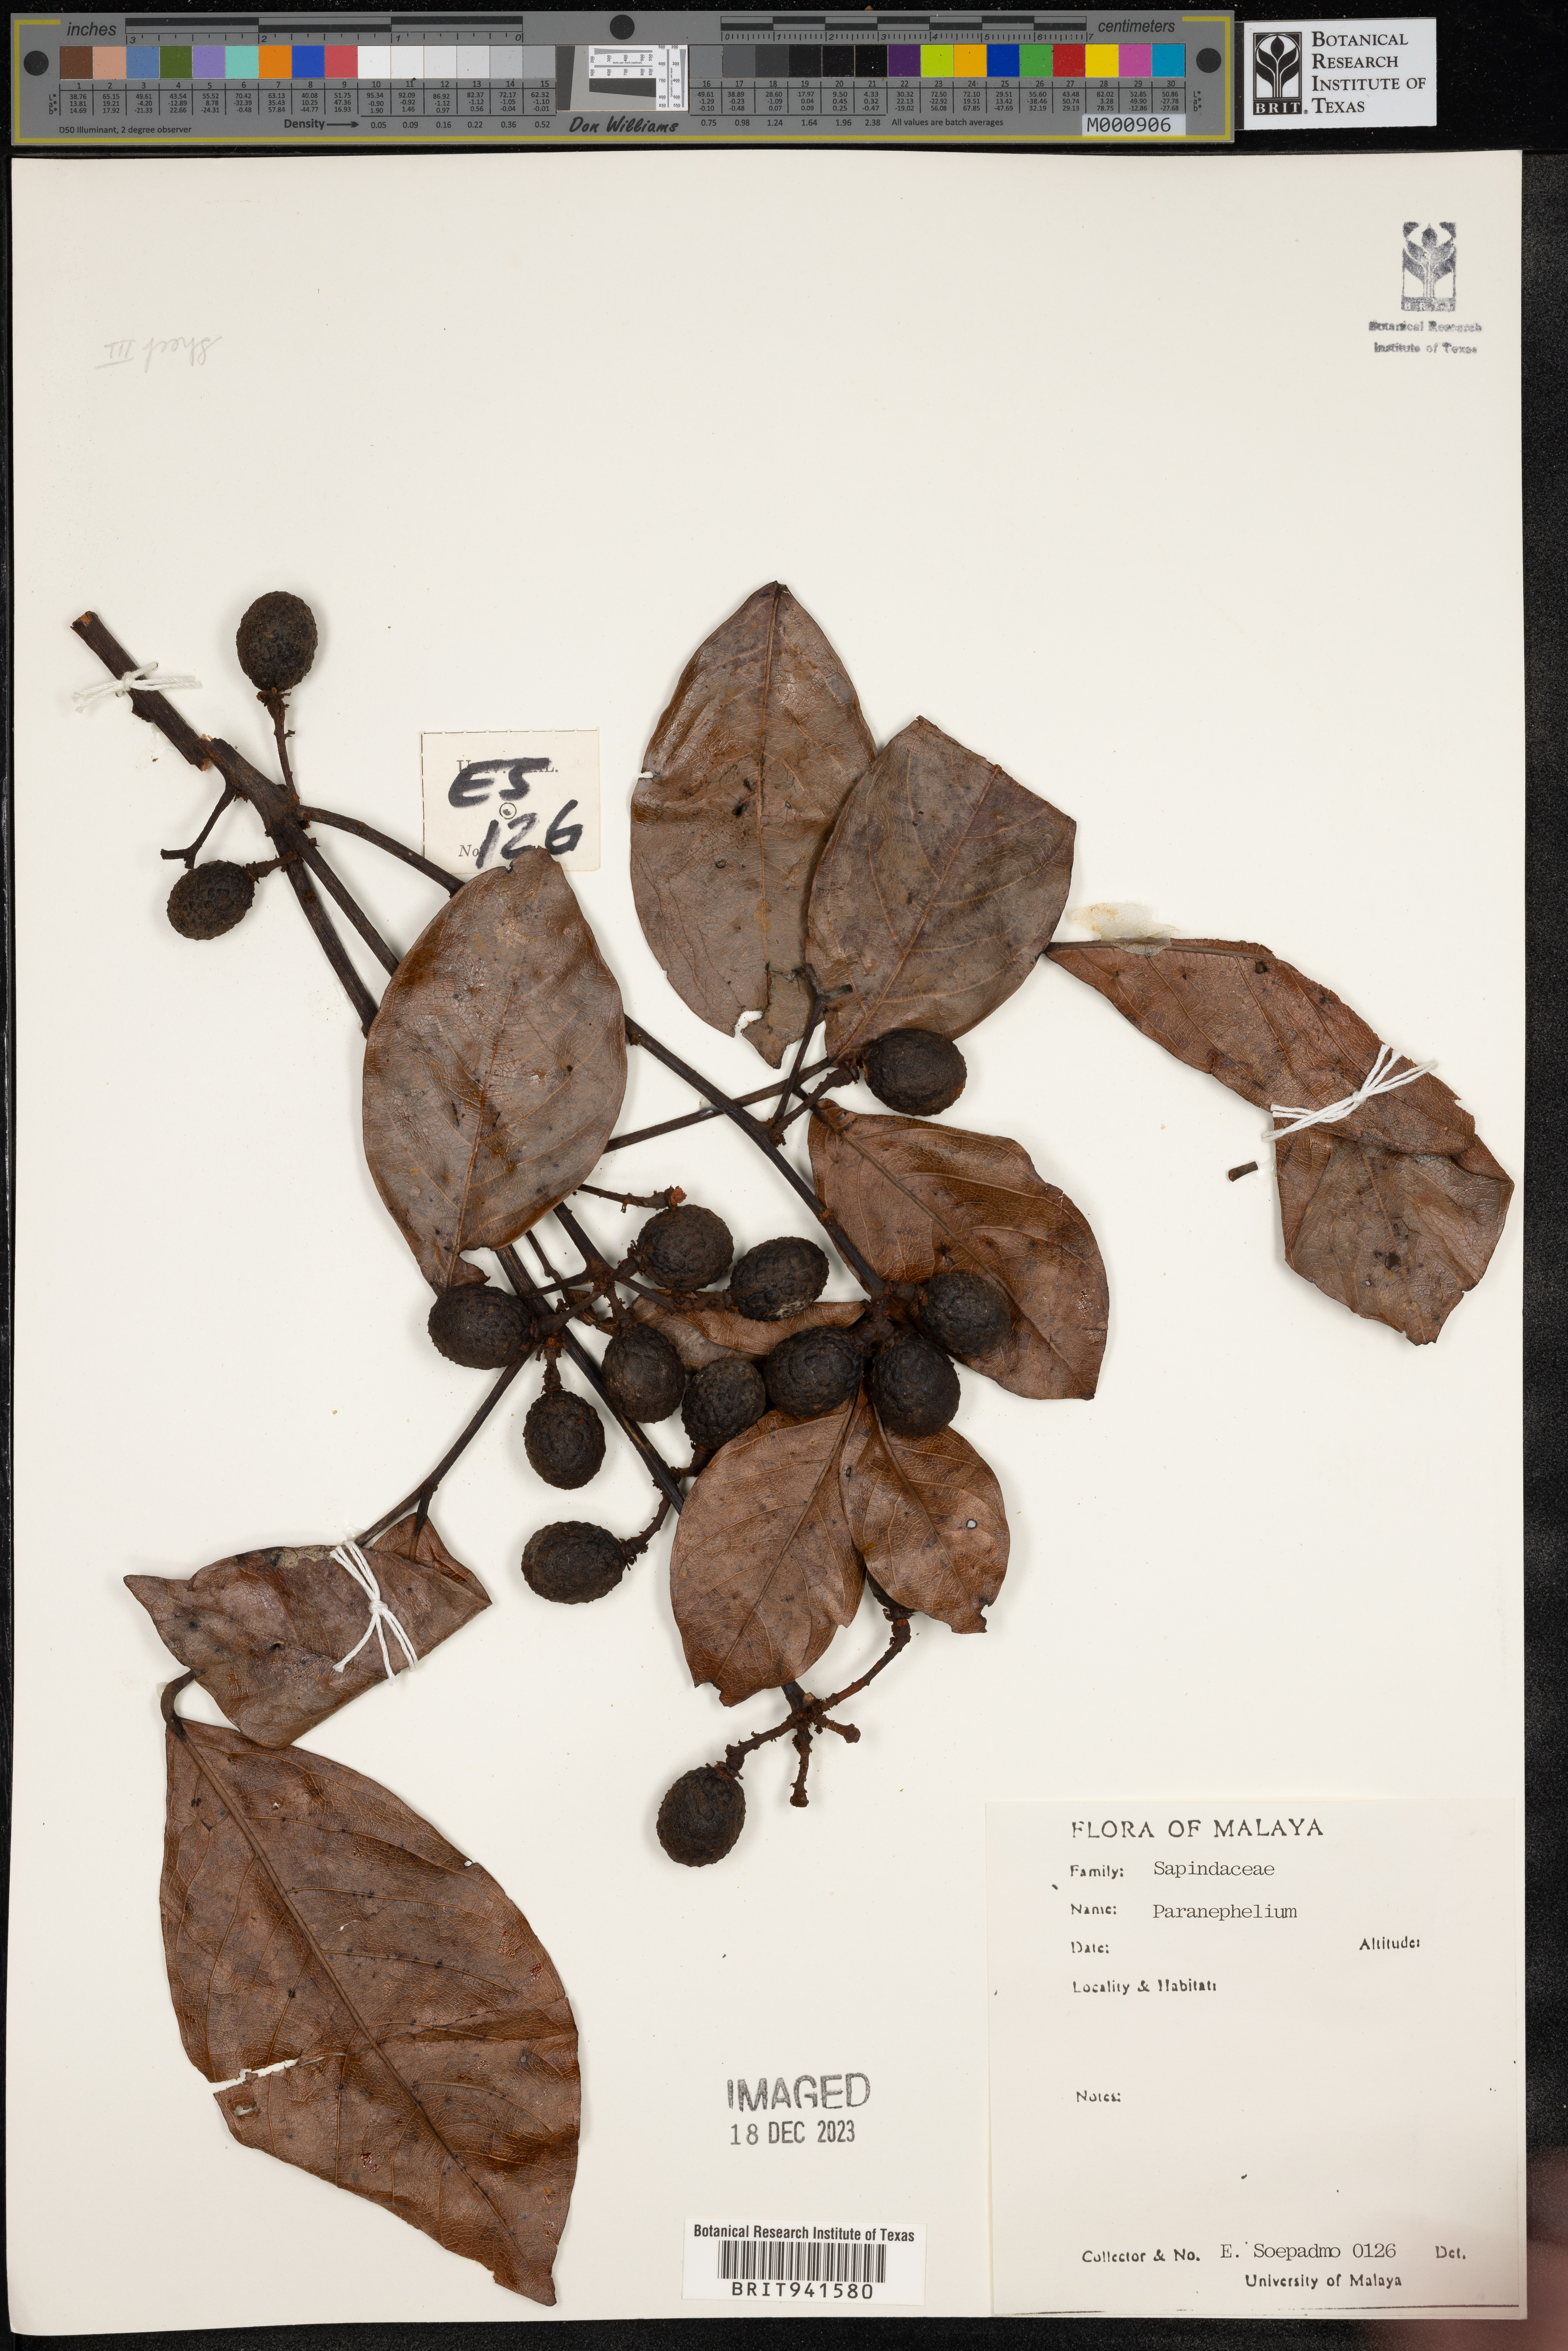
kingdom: Plantae
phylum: Tracheophyta
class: Magnoliopsida
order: Sapindales
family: Sapindaceae
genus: Paranephelium
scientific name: Paranephelium
